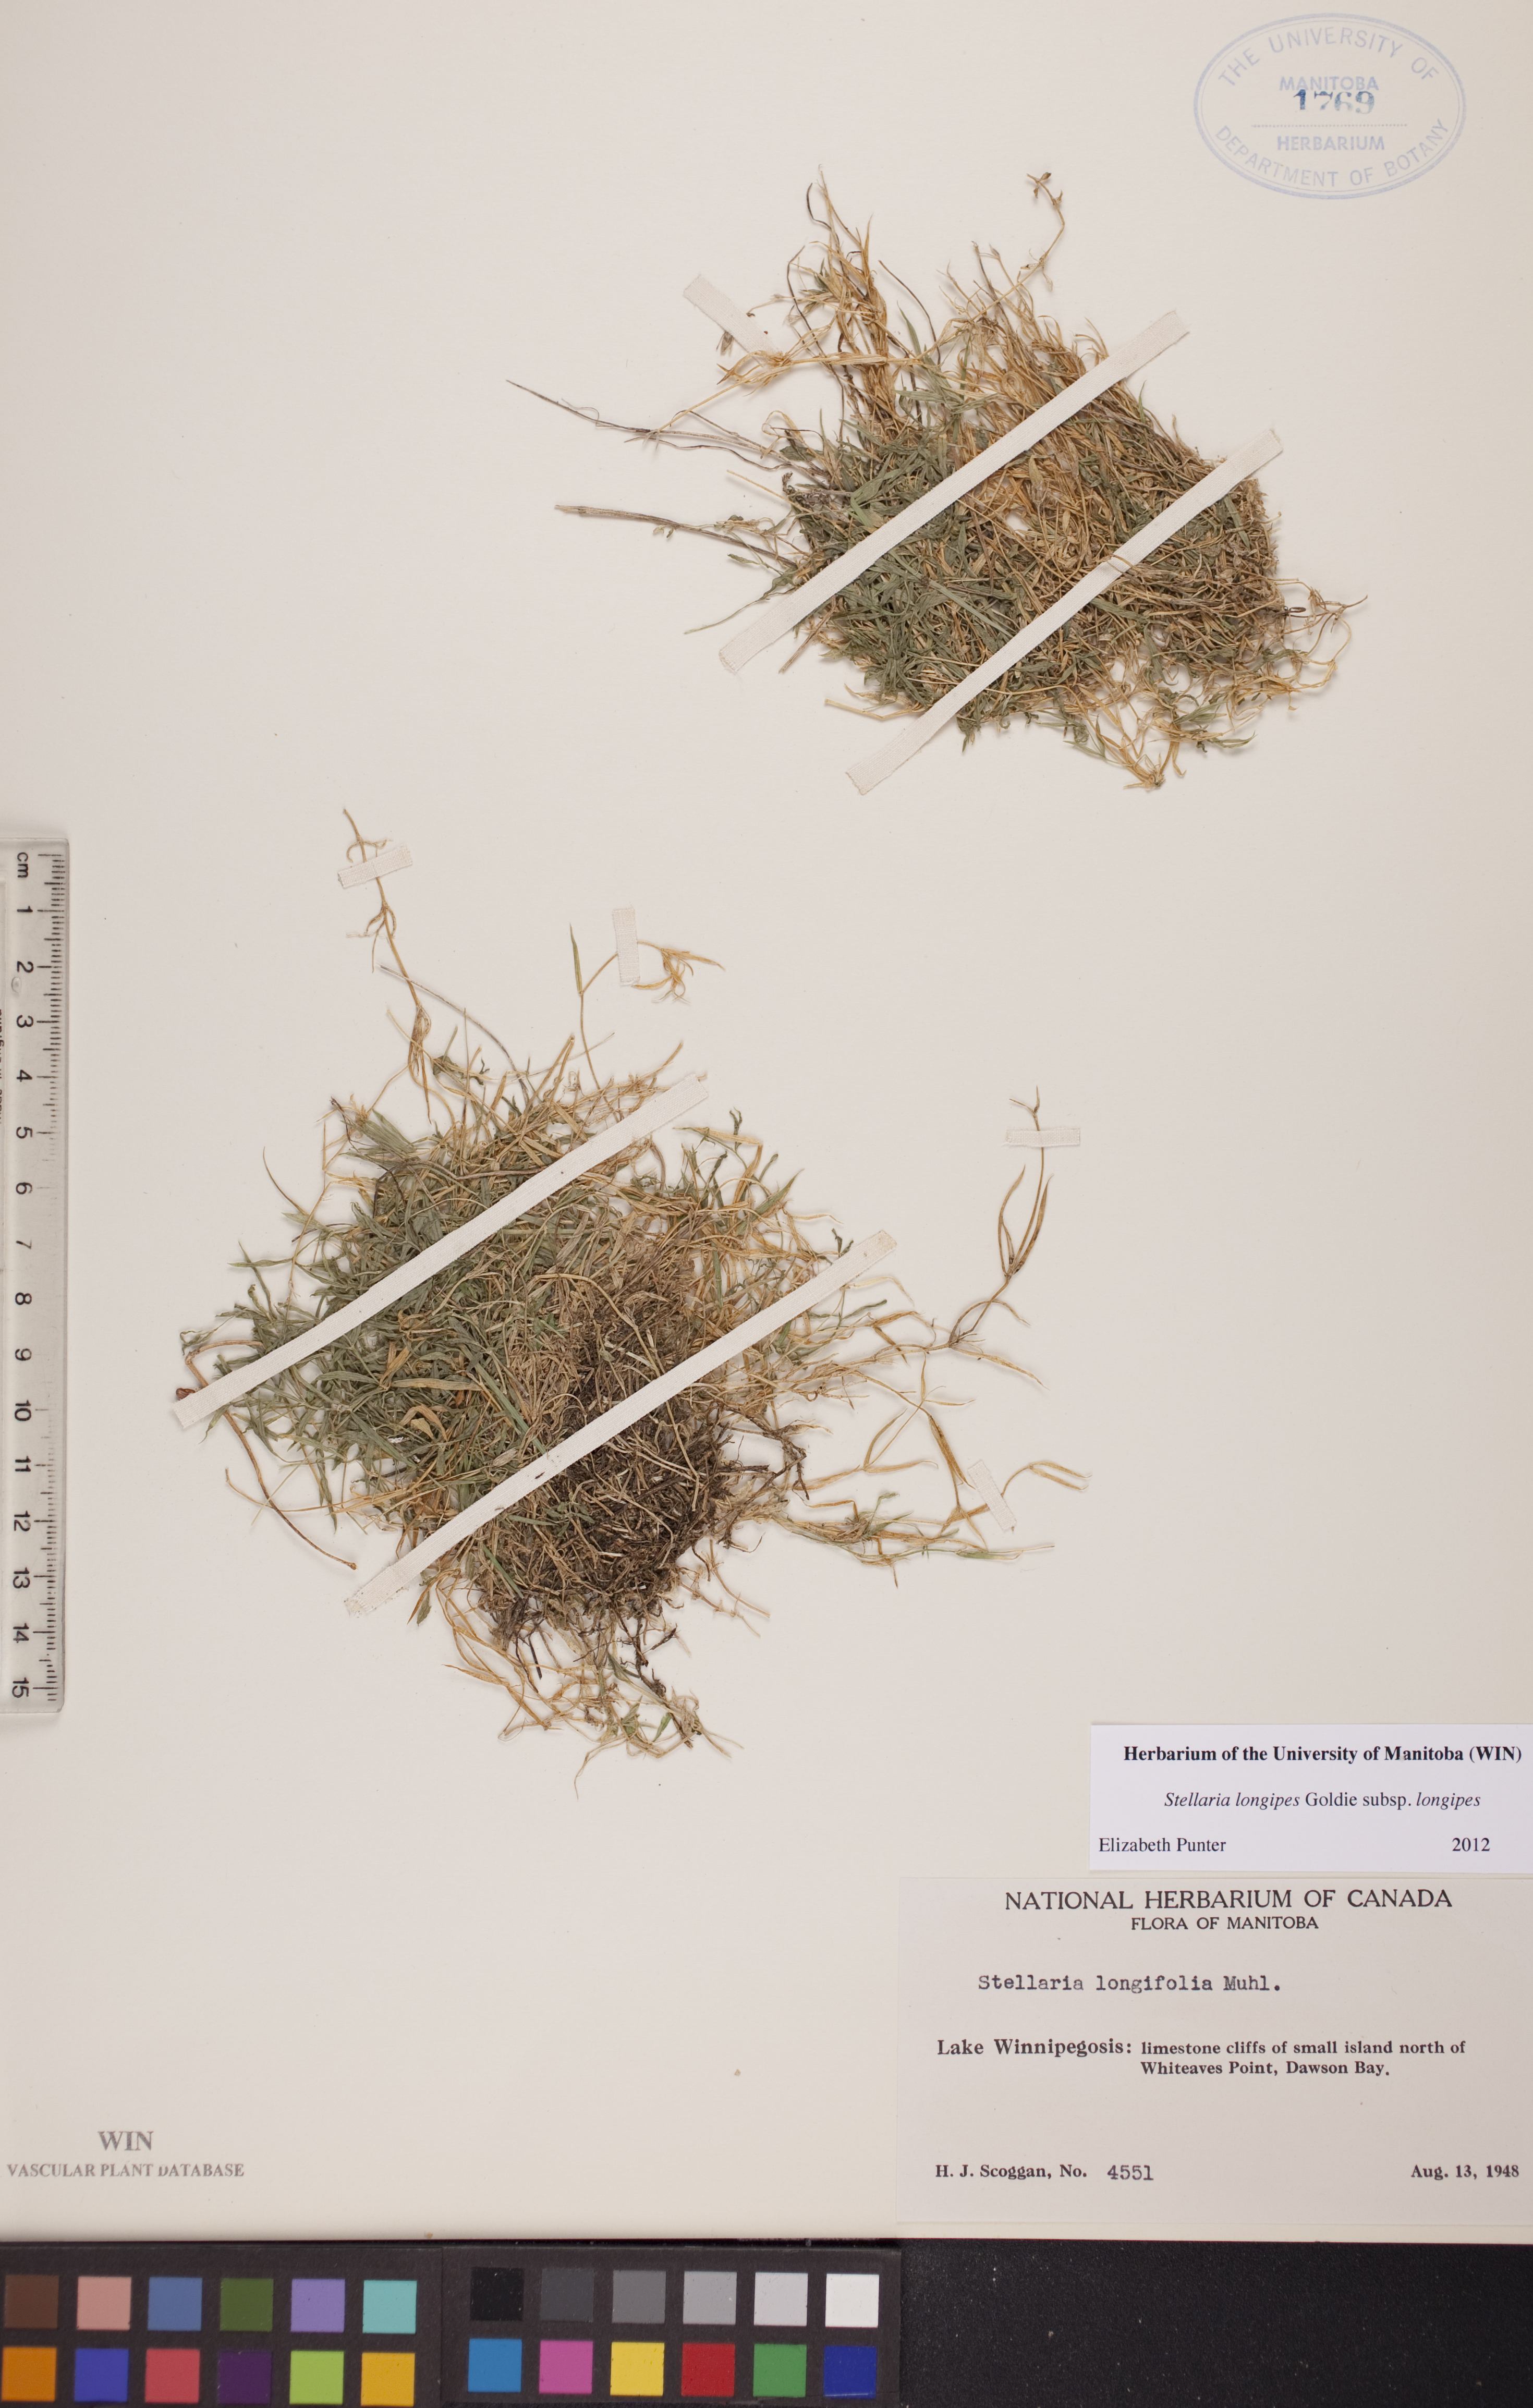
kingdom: Plantae
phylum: Tracheophyta
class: Magnoliopsida
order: Caryophyllales
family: Caryophyllaceae
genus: Stellaria
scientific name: Stellaria longipes
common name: Goldie's starwort
